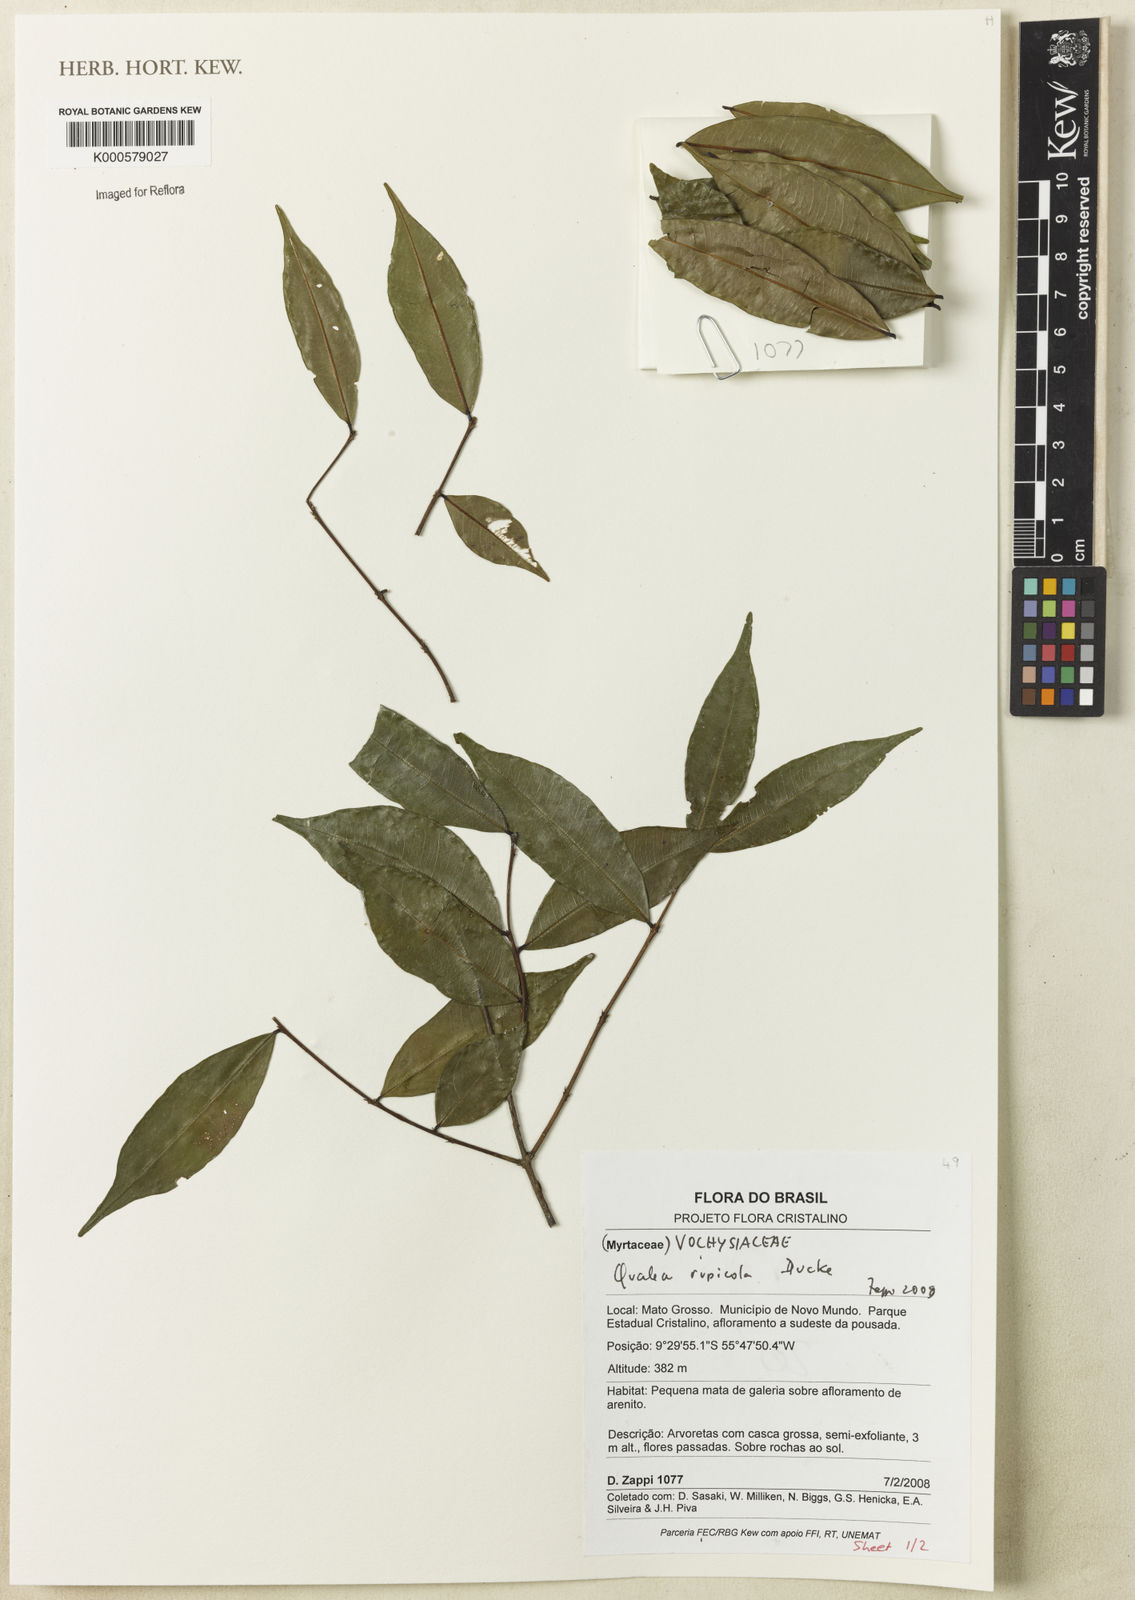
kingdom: Plantae
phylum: Tracheophyta
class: Magnoliopsida
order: Myrtales
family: Vochysiaceae
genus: Qualea
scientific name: Qualea rupicola
